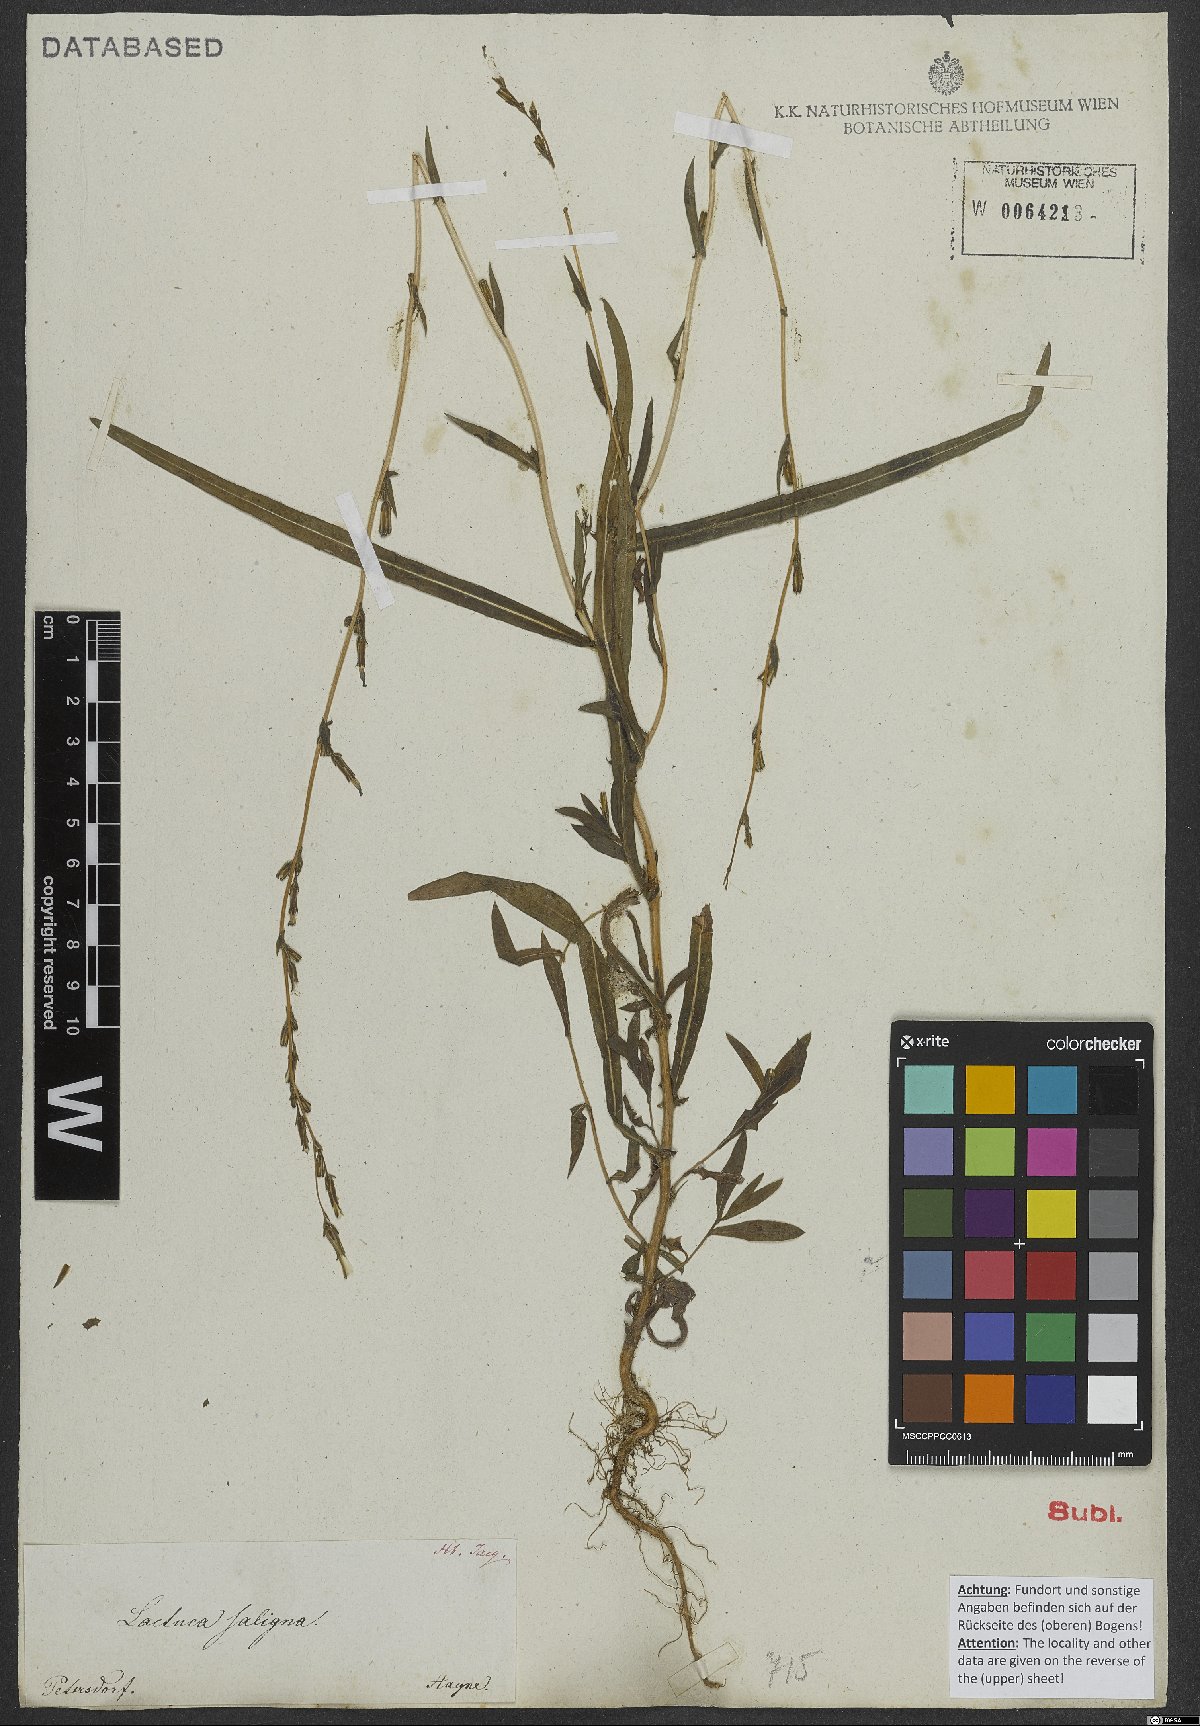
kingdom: Plantae
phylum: Tracheophyta
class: Magnoliopsida
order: Asterales
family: Asteraceae
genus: Lactuca
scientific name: Lactuca saligna
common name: Wild lettuce
